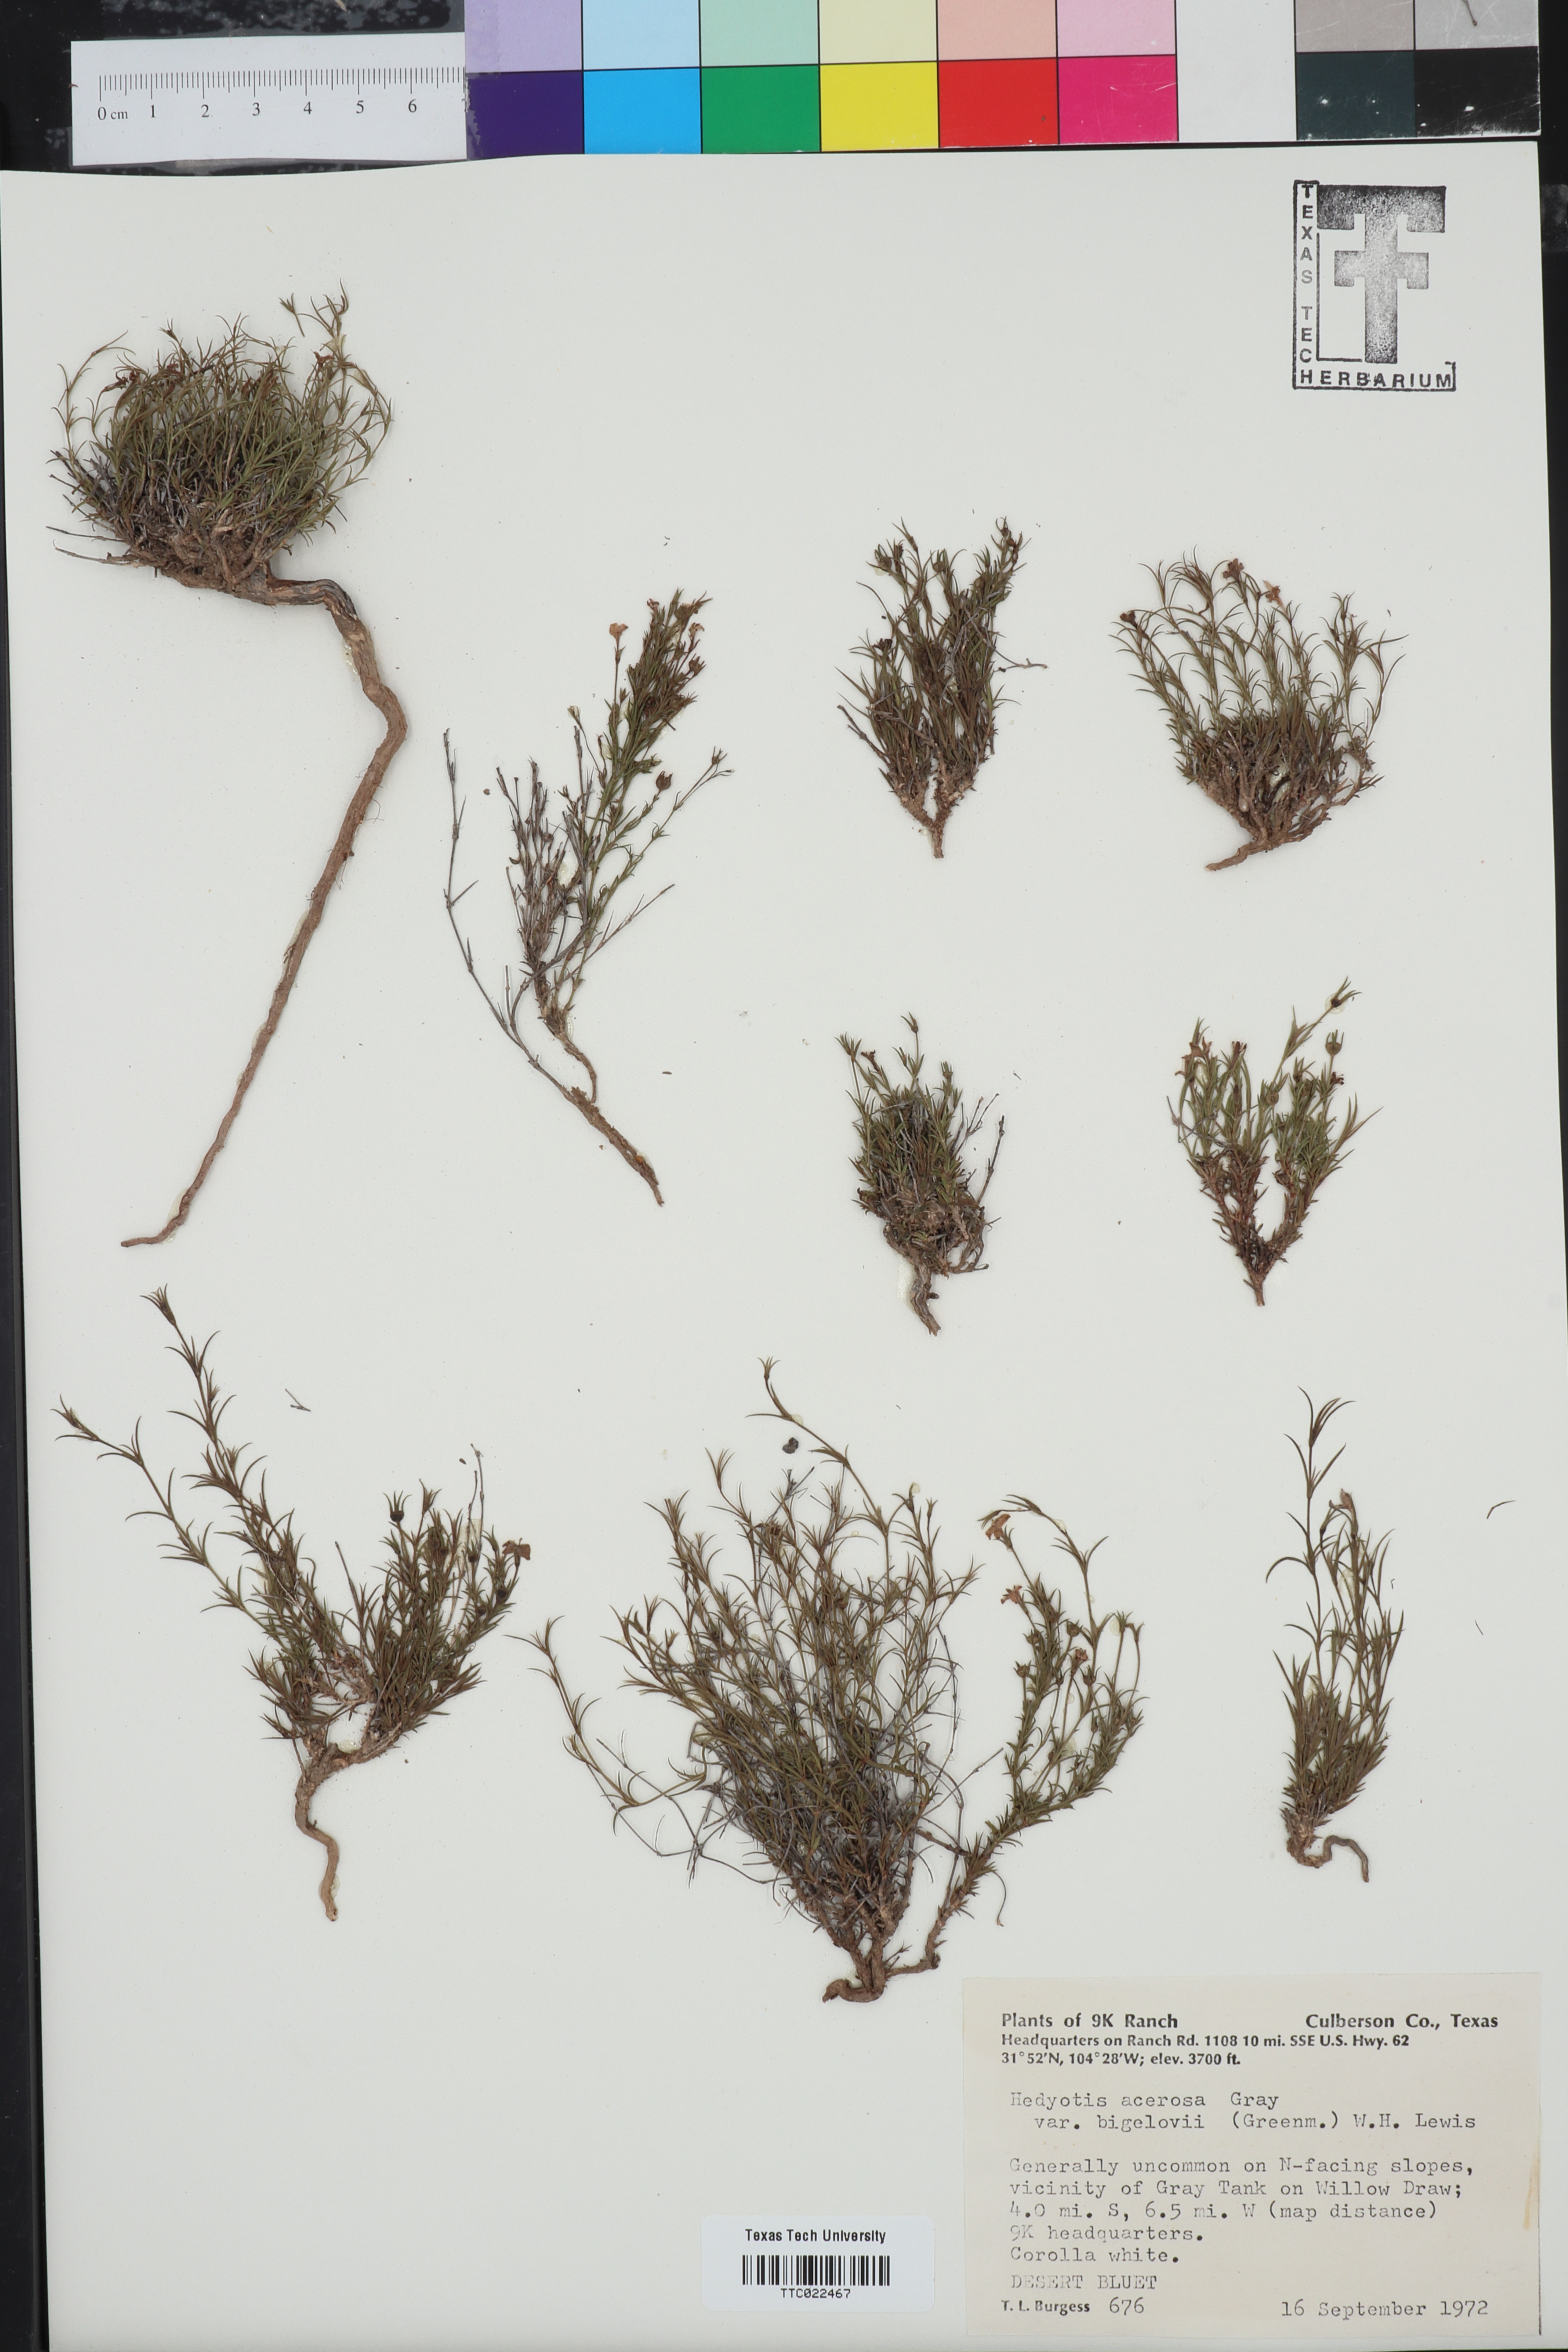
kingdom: Plantae
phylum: Tracheophyta
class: Magnoliopsida
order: Gentianales
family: Rubiaceae
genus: Houstonia
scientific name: Houstonia acerosa
